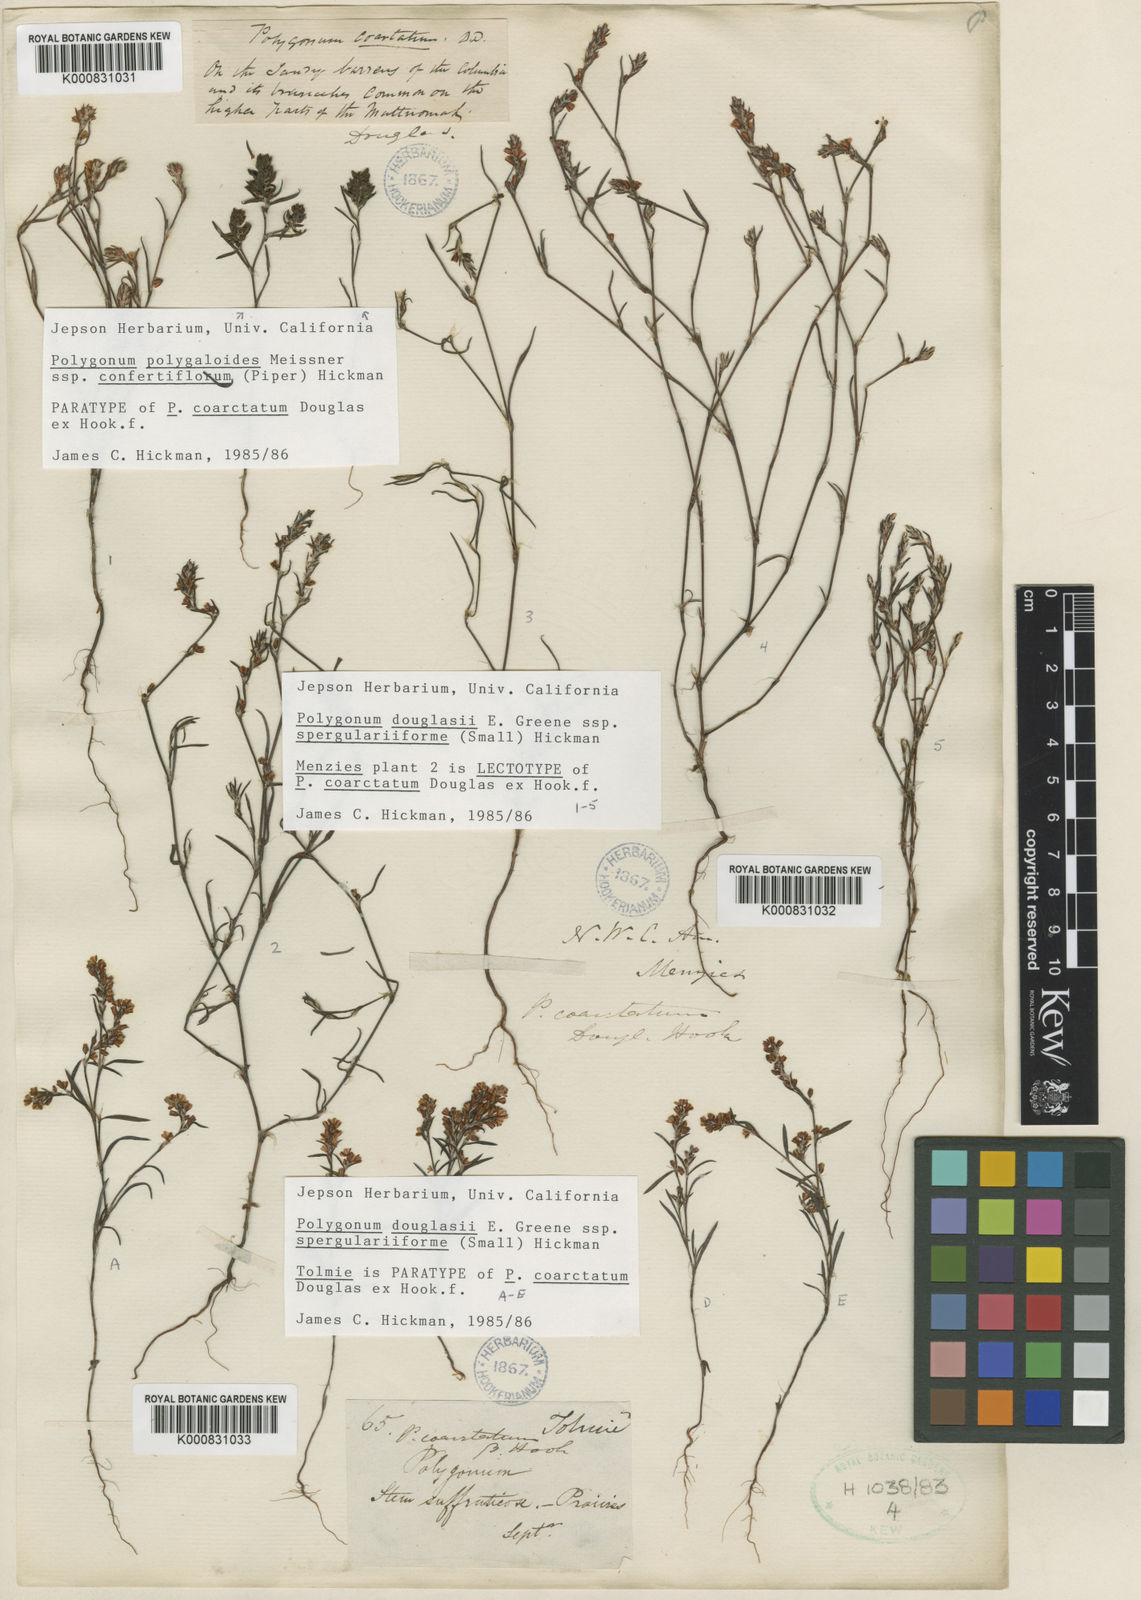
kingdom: Plantae
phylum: Tracheophyta
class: Magnoliopsida
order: Caryophyllales
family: Polygonaceae
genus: Polygonum
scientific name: Polygonum douglasii
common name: Douglas' knotweed
